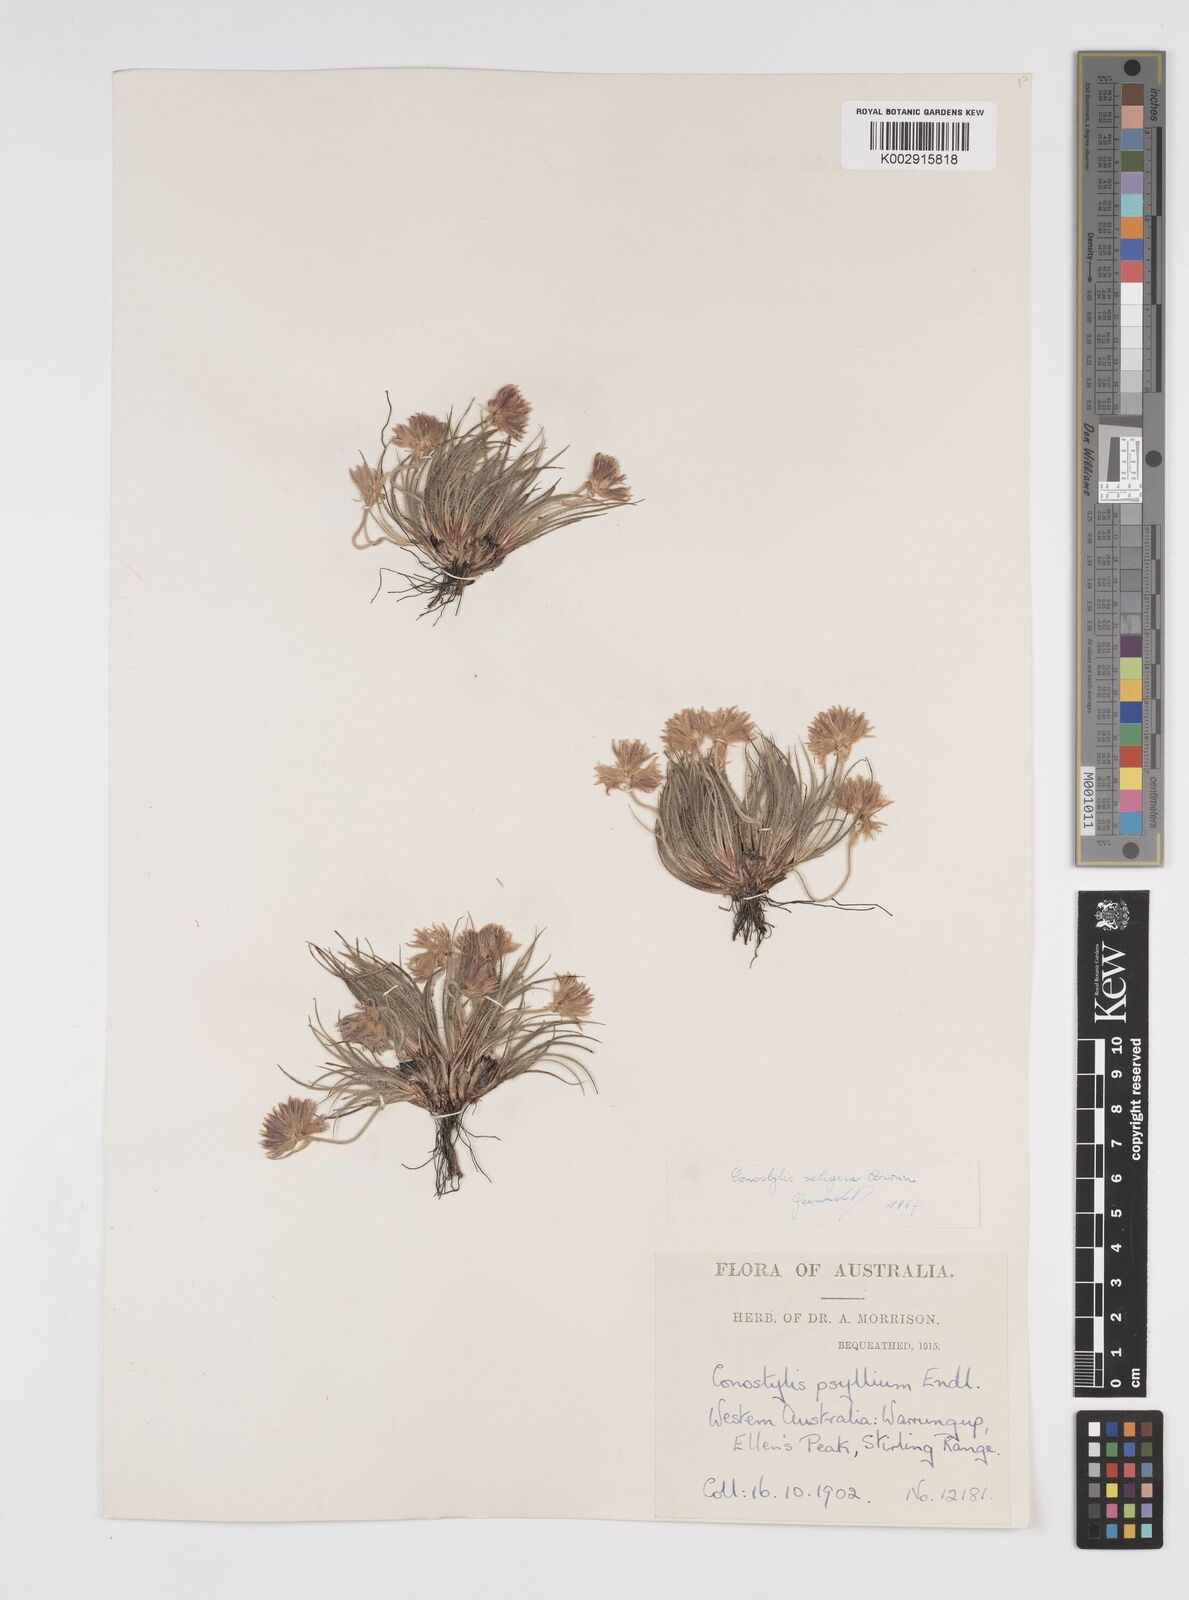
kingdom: Plantae
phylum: Tracheophyta
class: Liliopsida
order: Commelinales
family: Haemodoraceae
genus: Conostylis
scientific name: Conostylis setigera
